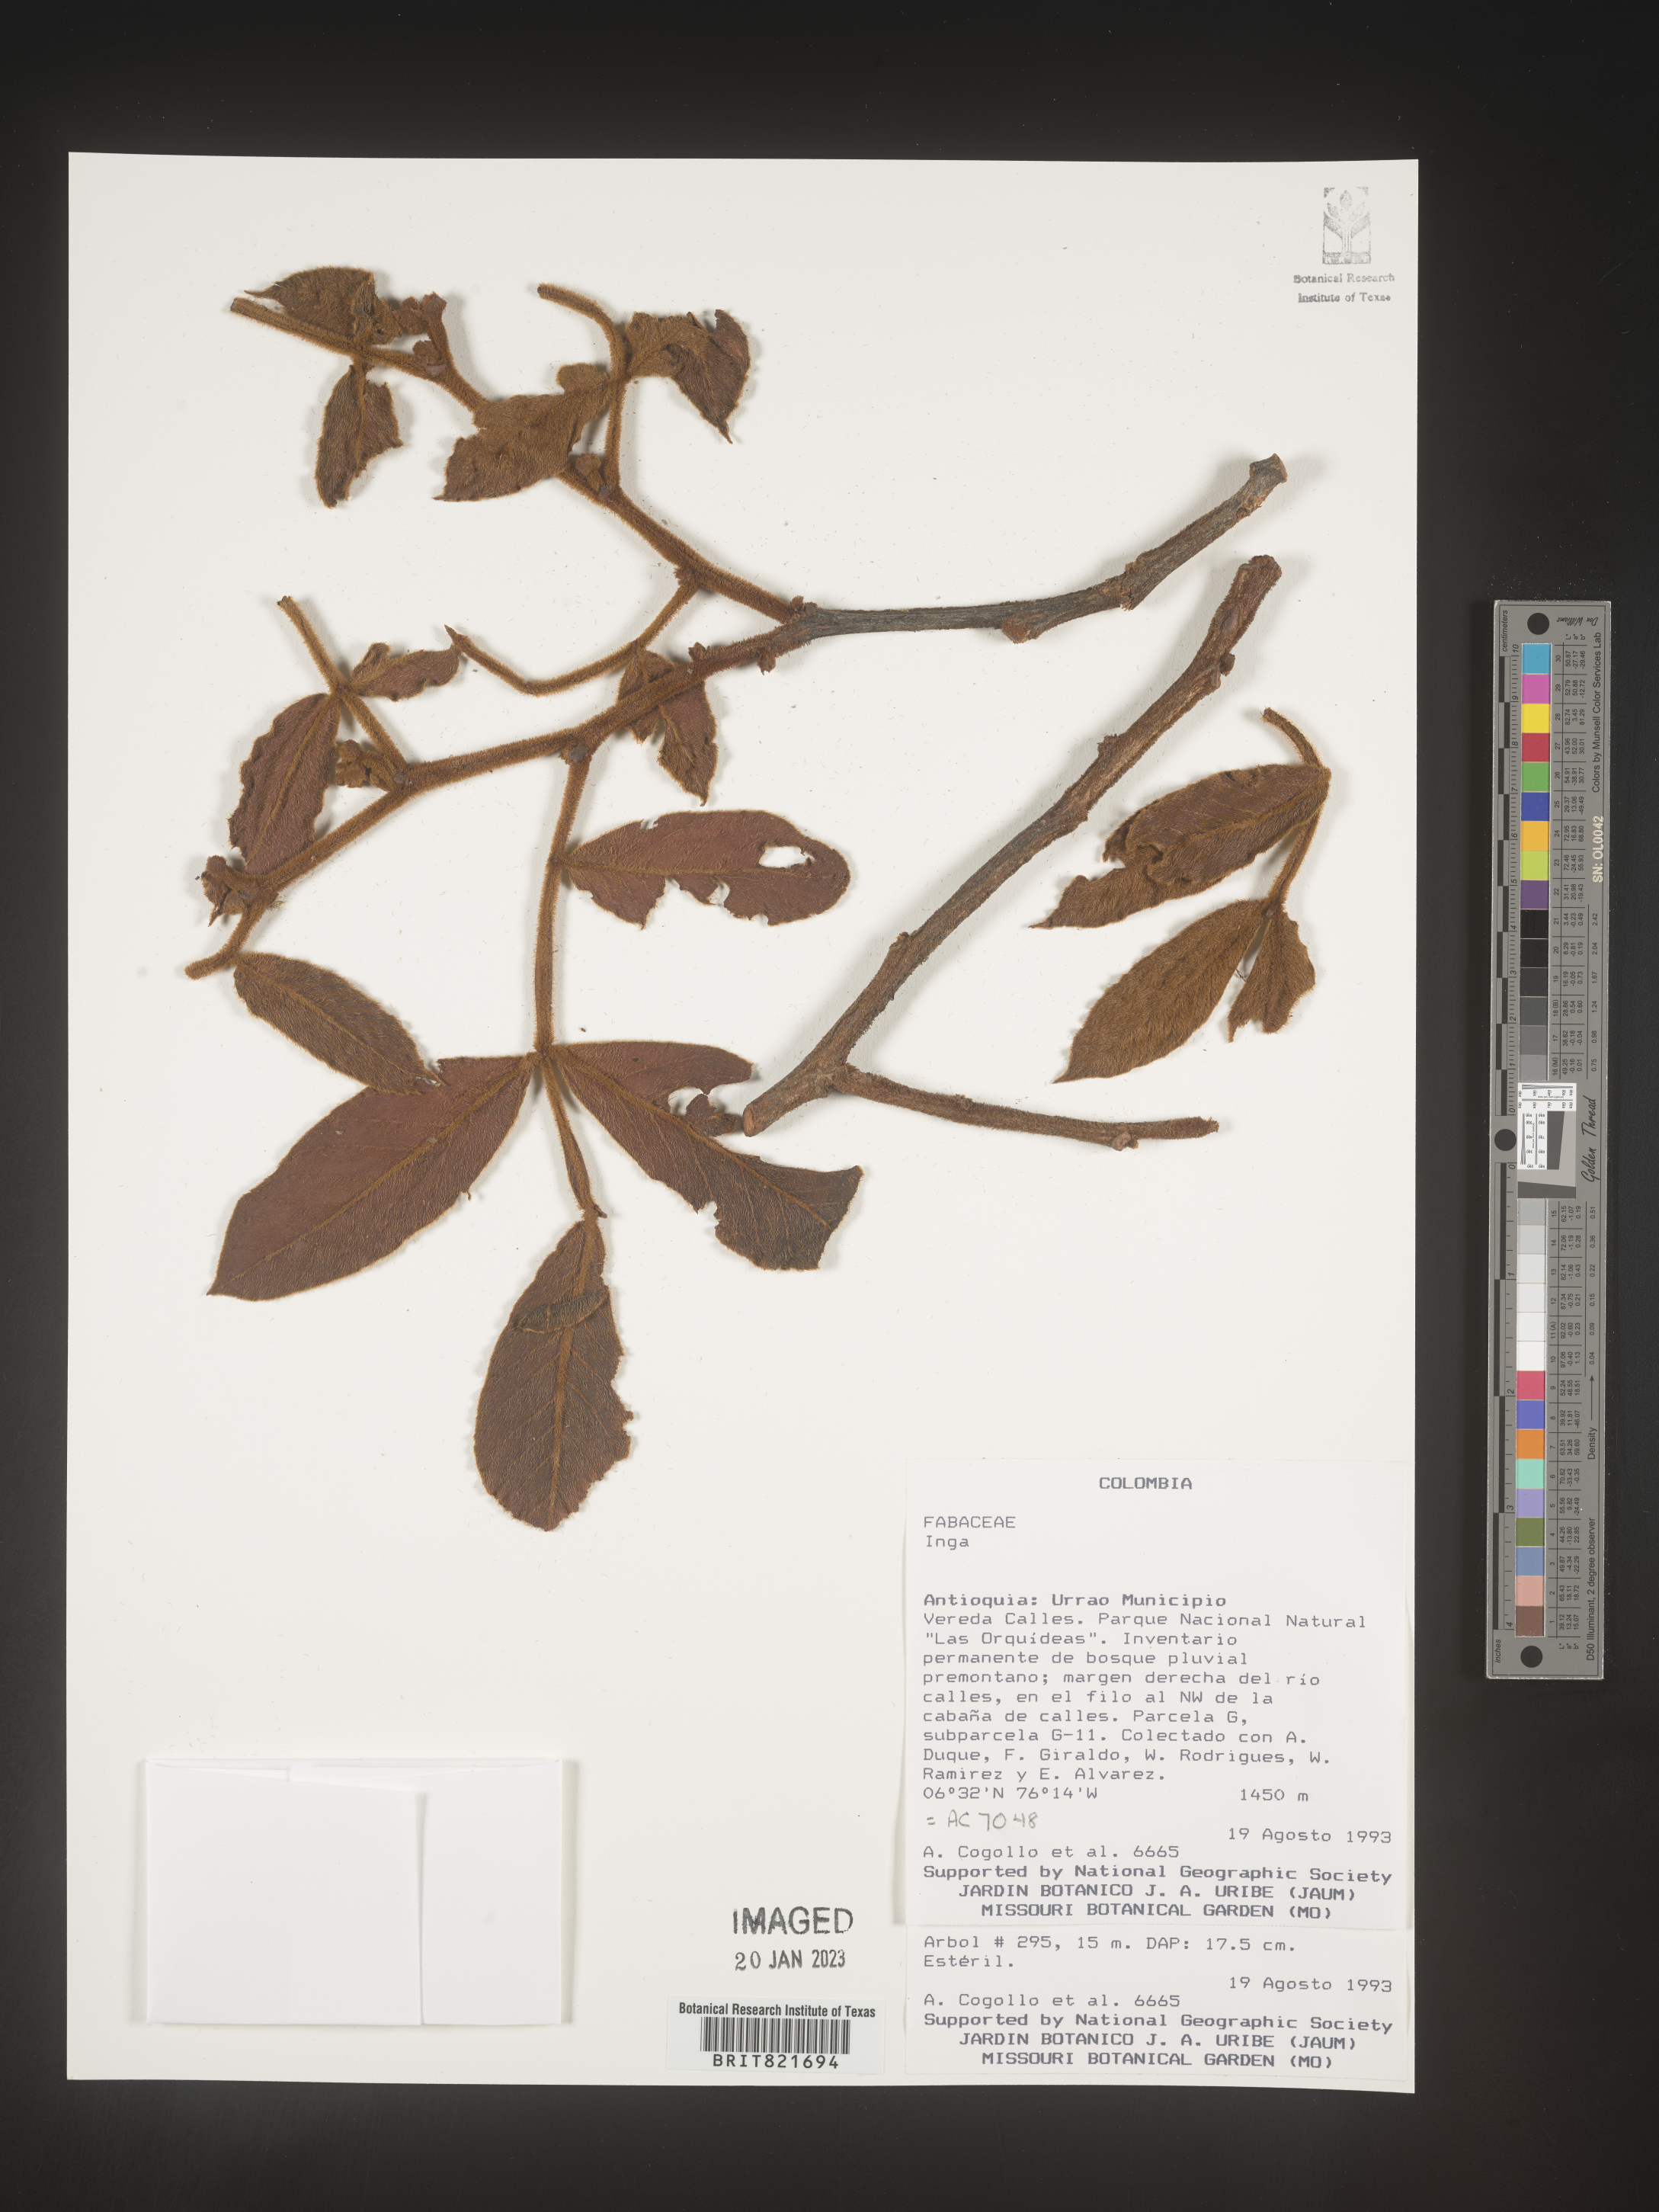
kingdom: Plantae
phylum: Tracheophyta
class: Magnoliopsida
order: Fabales
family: Fabaceae
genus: Inga
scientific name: Inga
